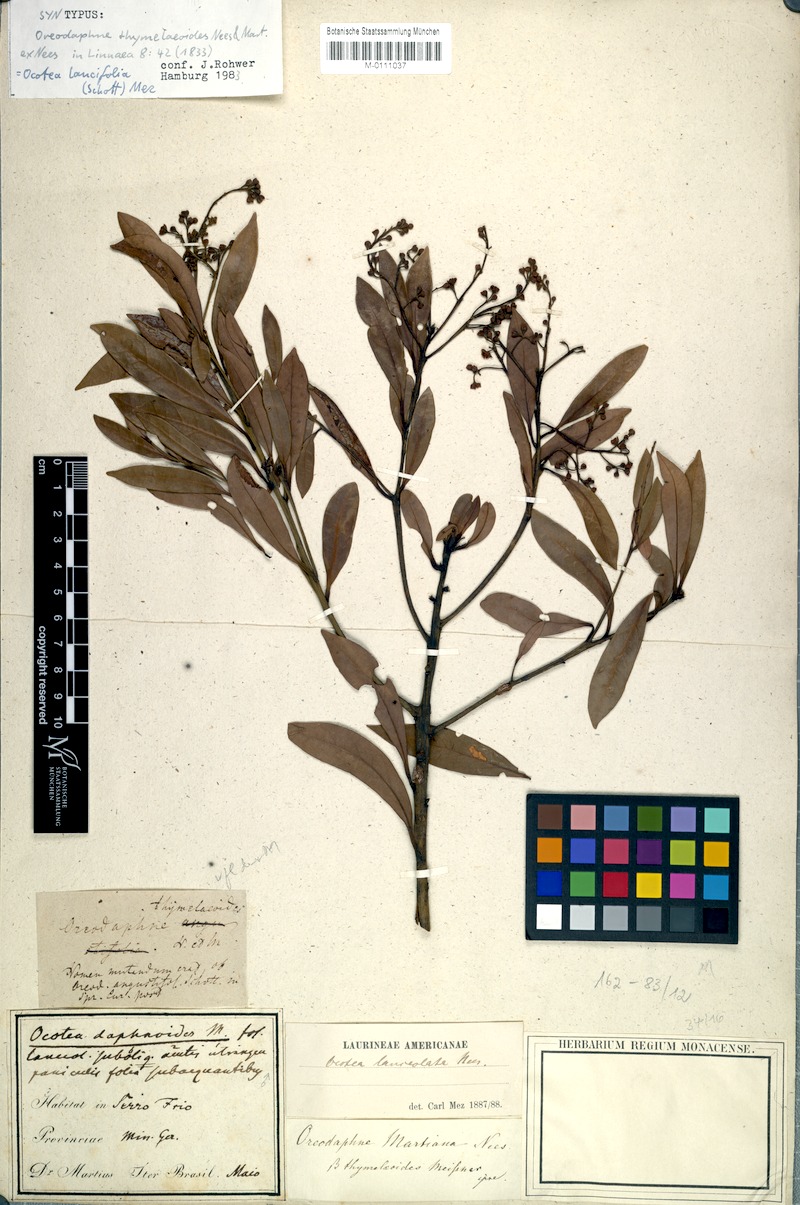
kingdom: Plantae
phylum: Tracheophyta
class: Magnoliopsida
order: Laurales
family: Lauraceae
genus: Ocotea
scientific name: Ocotea lancifolia
